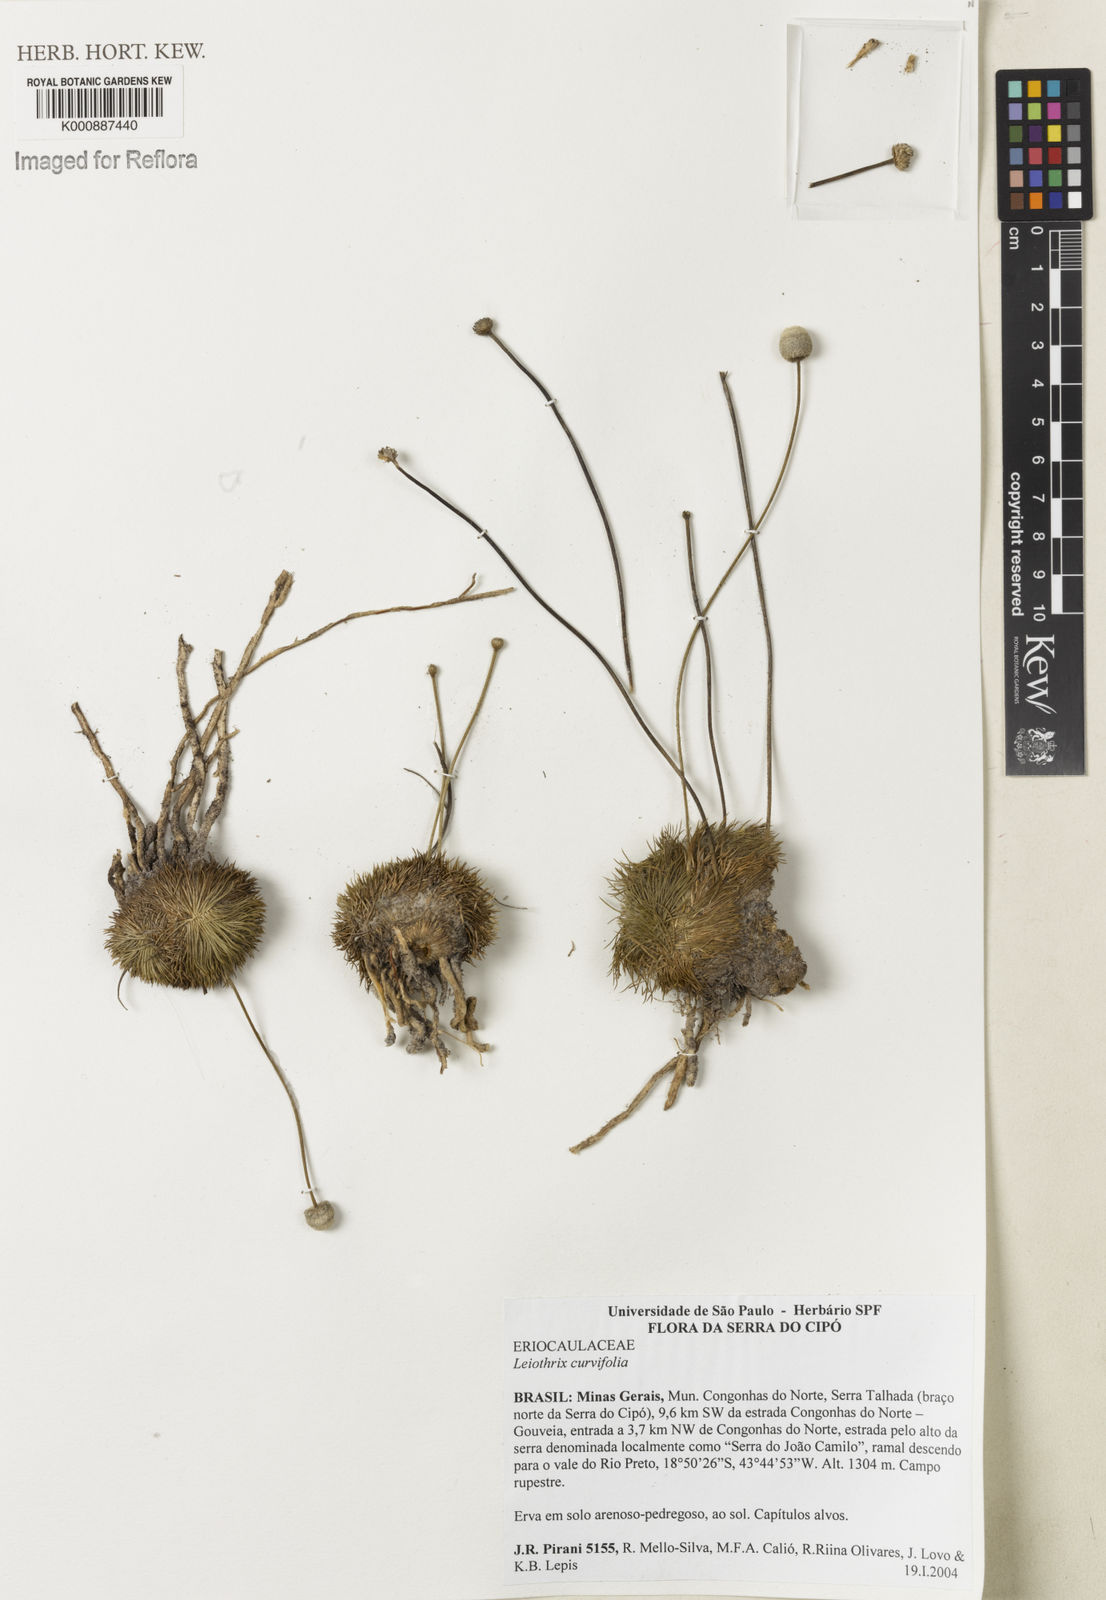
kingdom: Plantae
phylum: Tracheophyta
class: Liliopsida
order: Poales
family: Eriocaulaceae
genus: Leiothrix
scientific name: Leiothrix curvifolia
